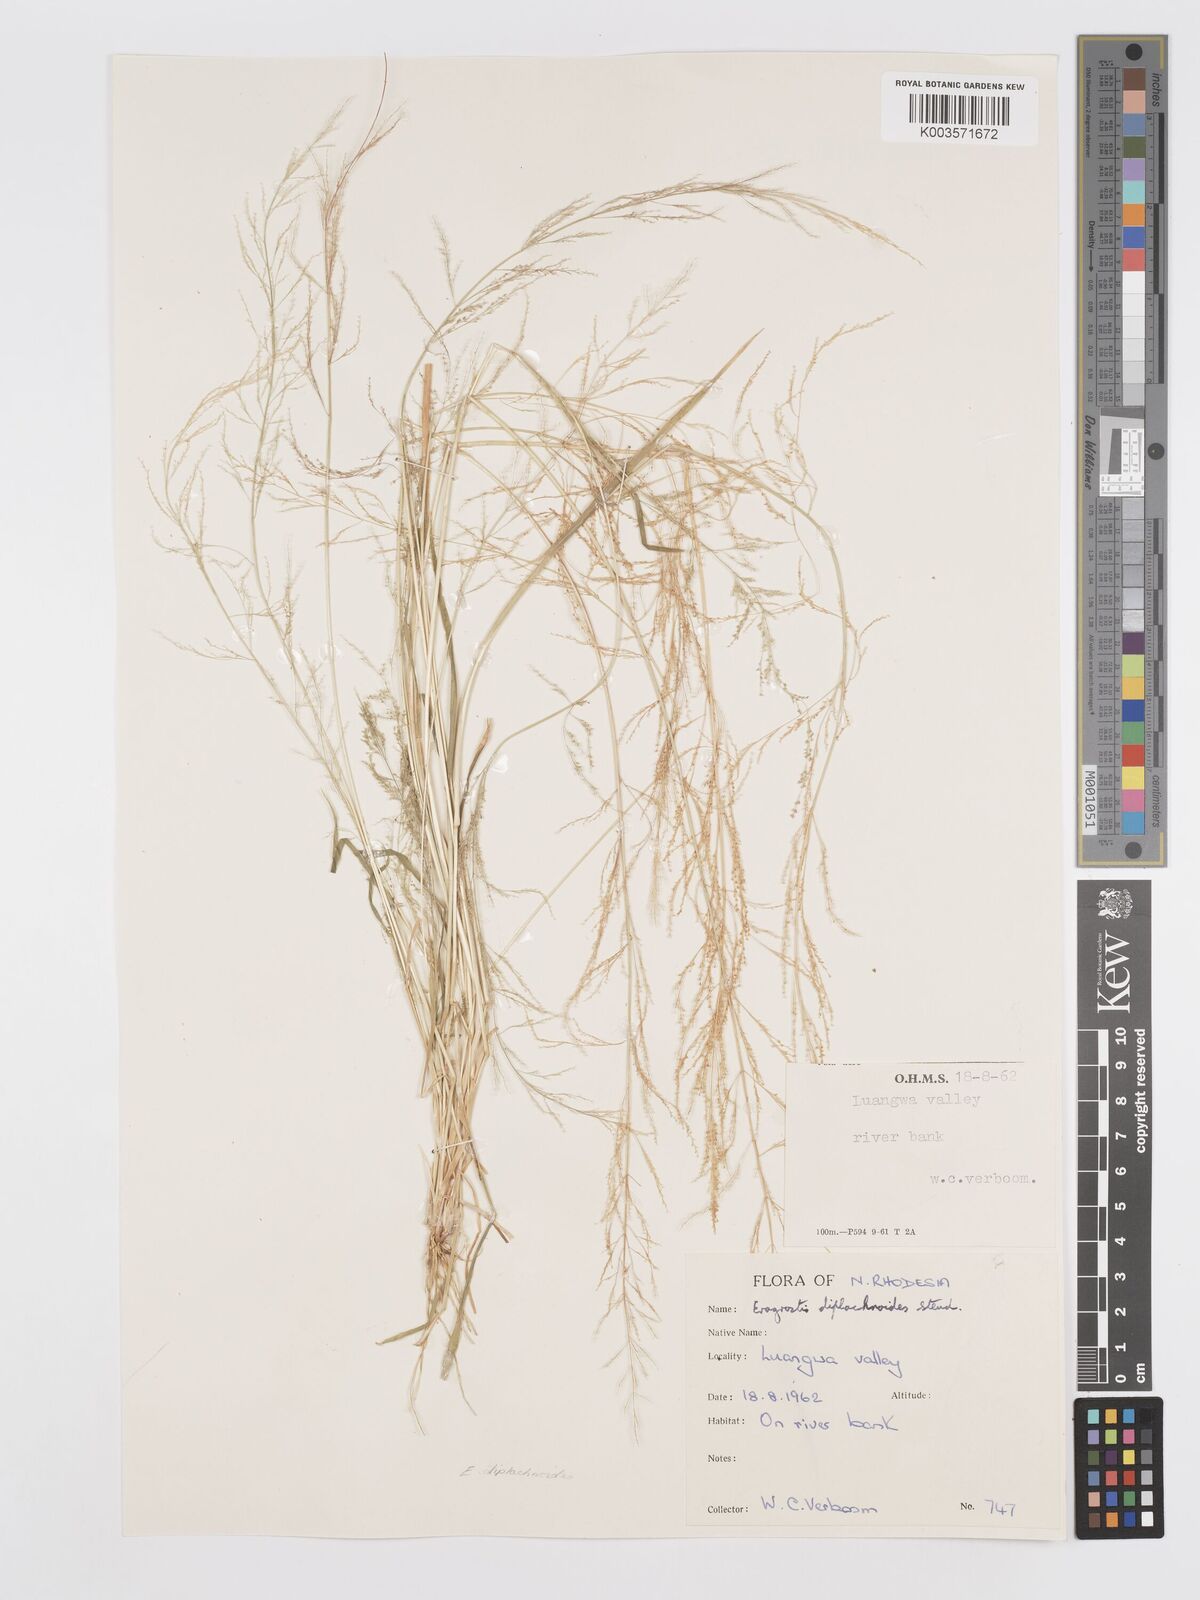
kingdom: Plantae
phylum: Tracheophyta
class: Liliopsida
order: Poales
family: Poaceae
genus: Eragrostis
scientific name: Eragrostis japonica
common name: Pond lovegrass
